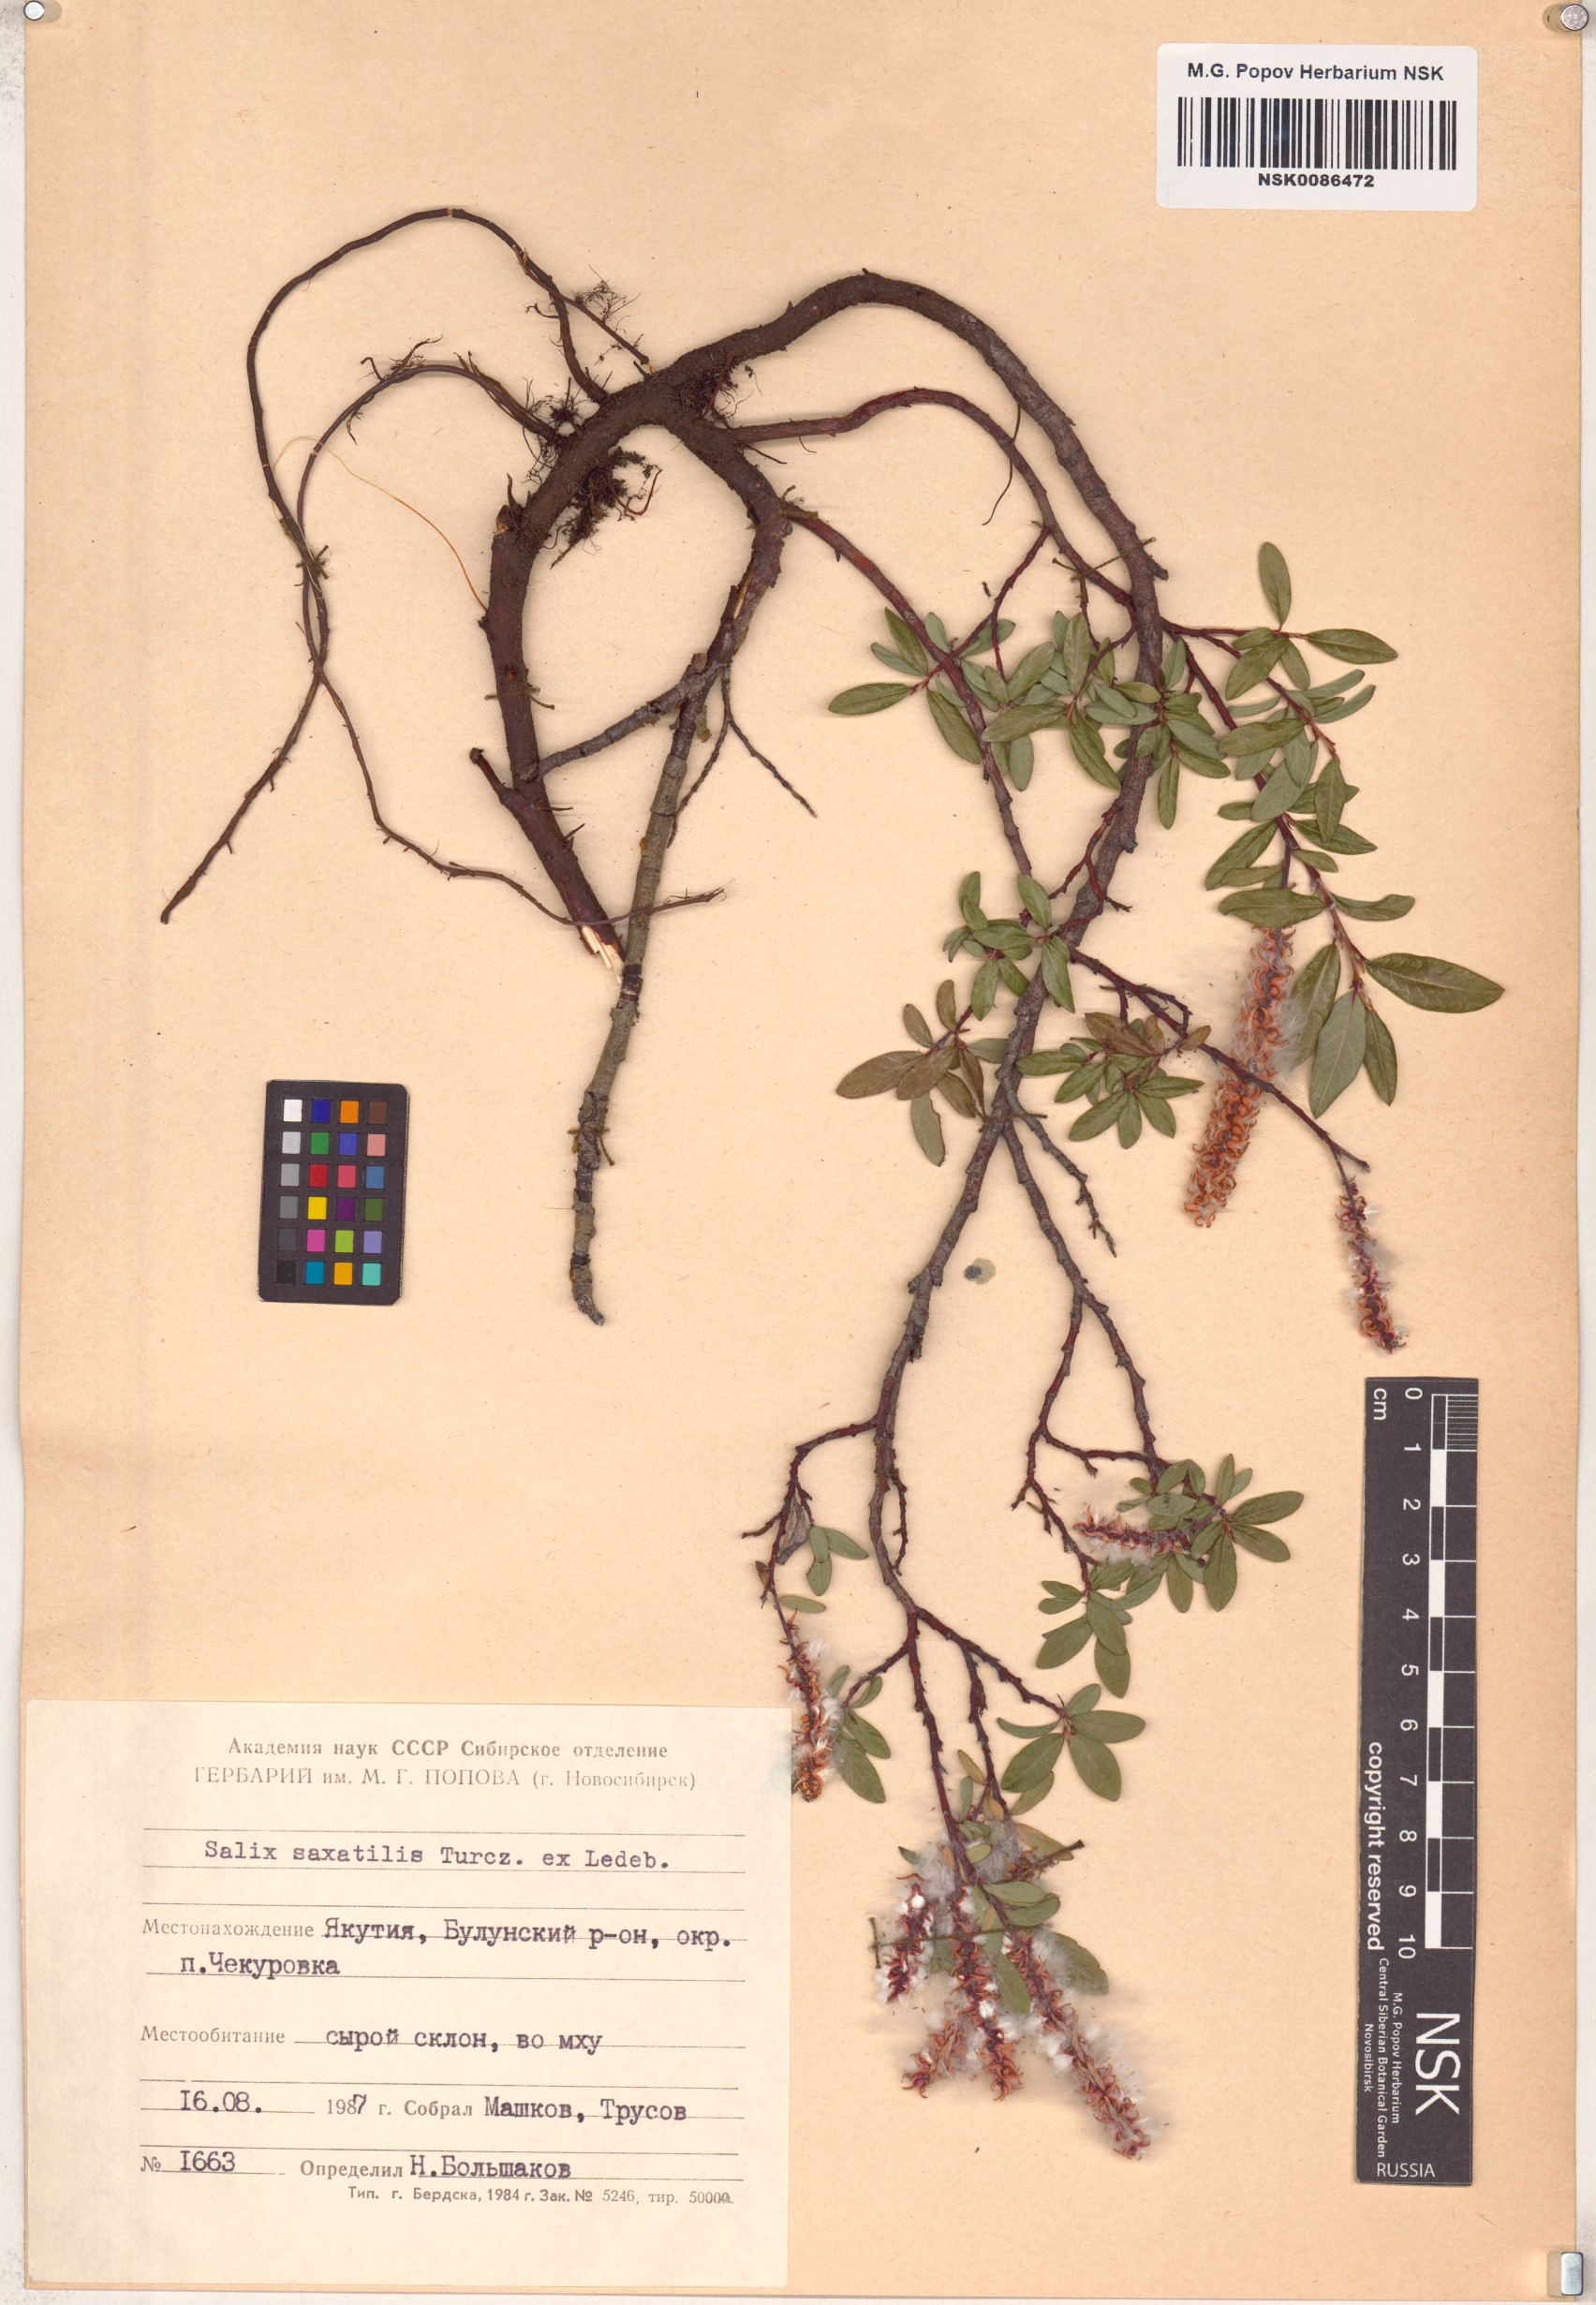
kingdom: Plantae
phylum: Tracheophyta
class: Magnoliopsida
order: Malpighiales
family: Salicaceae
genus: Salix
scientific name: Salix saxatilis
